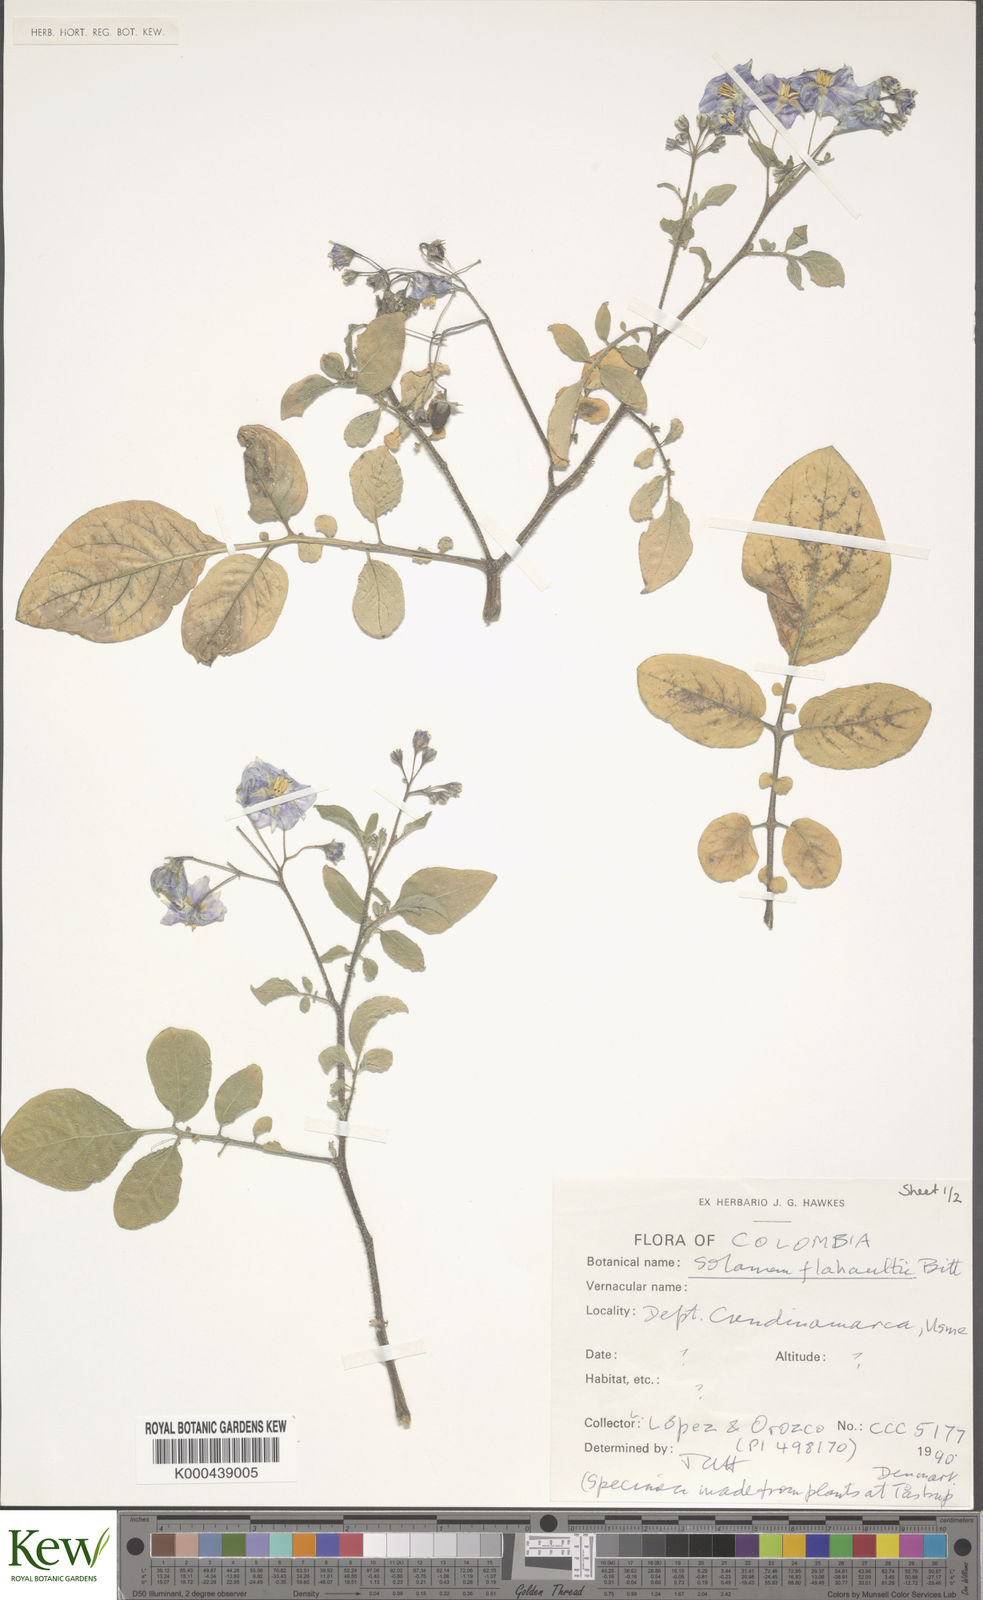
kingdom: Plantae
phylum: Tracheophyta
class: Magnoliopsida
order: Solanales
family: Solanaceae
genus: Solanum
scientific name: Solanum flahaultii
